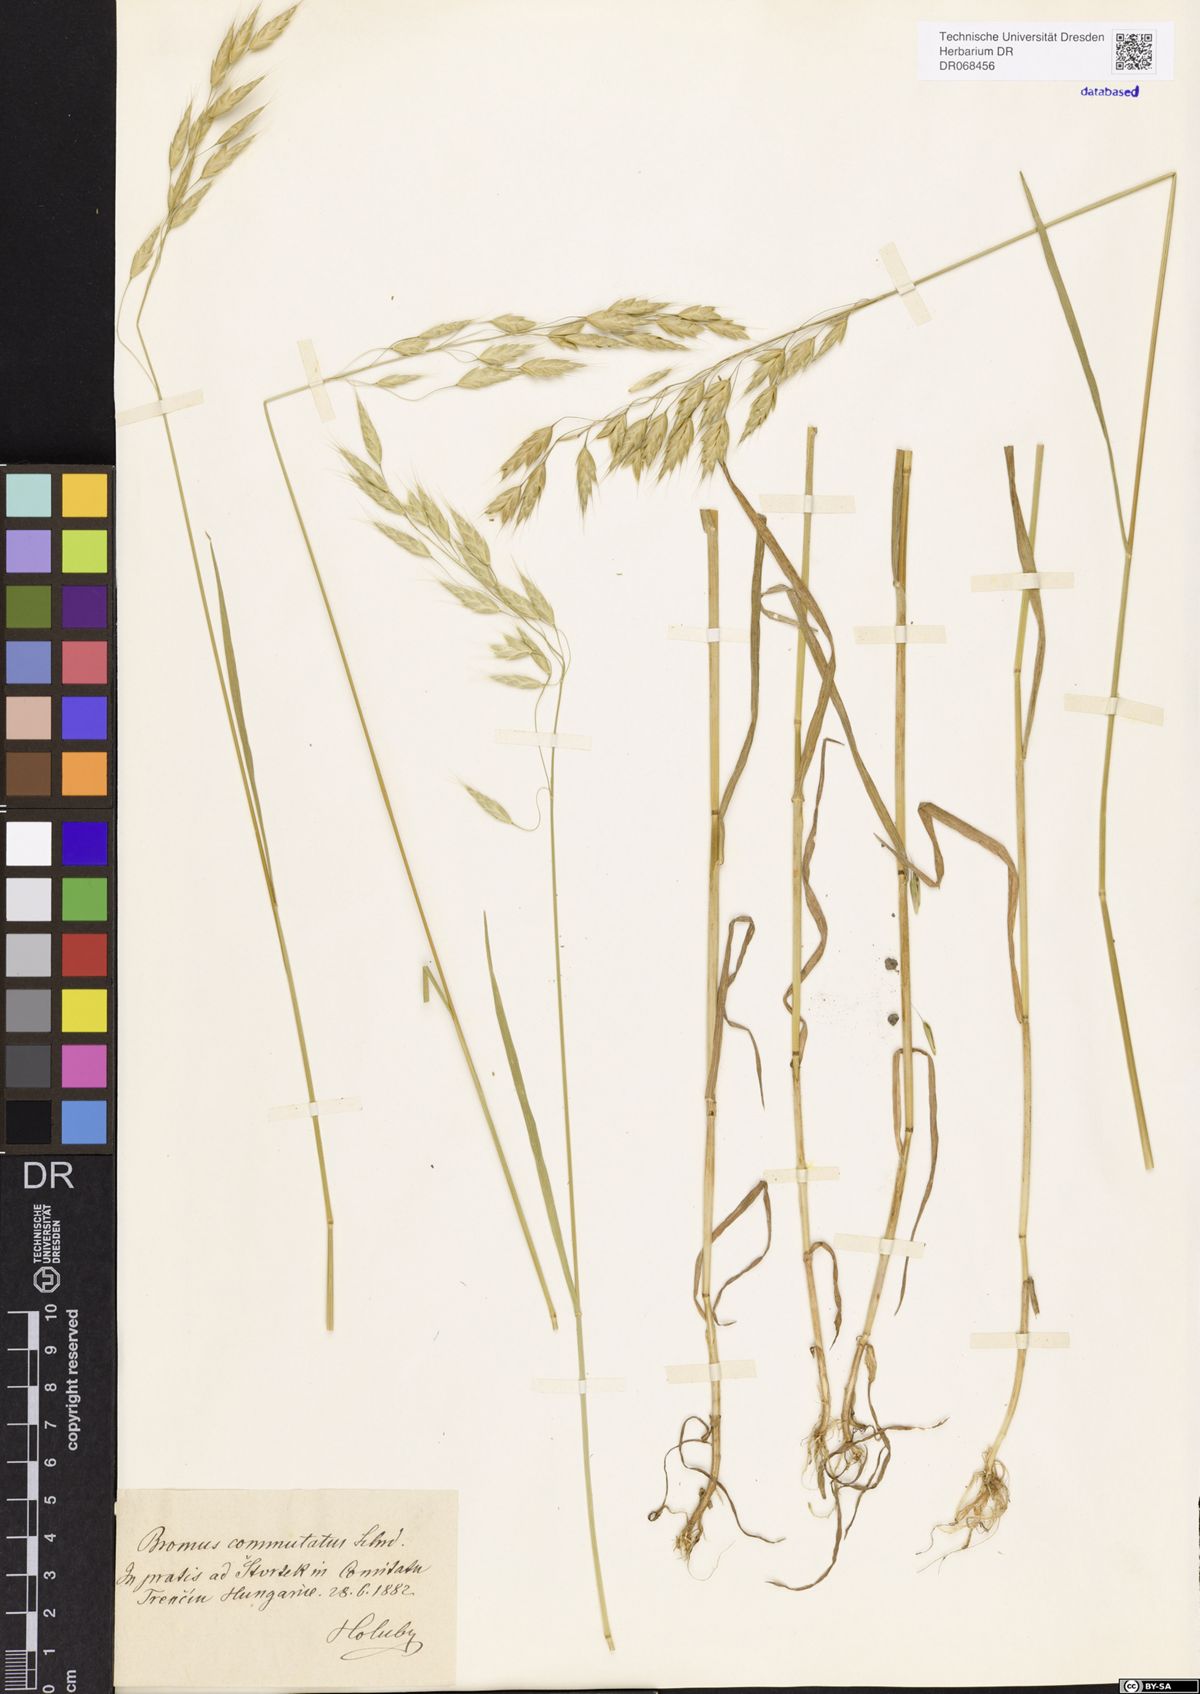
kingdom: Plantae
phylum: Tracheophyta
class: Liliopsida
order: Poales
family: Poaceae
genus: Bromus
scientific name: Bromus commutatus
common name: Meadow brome
